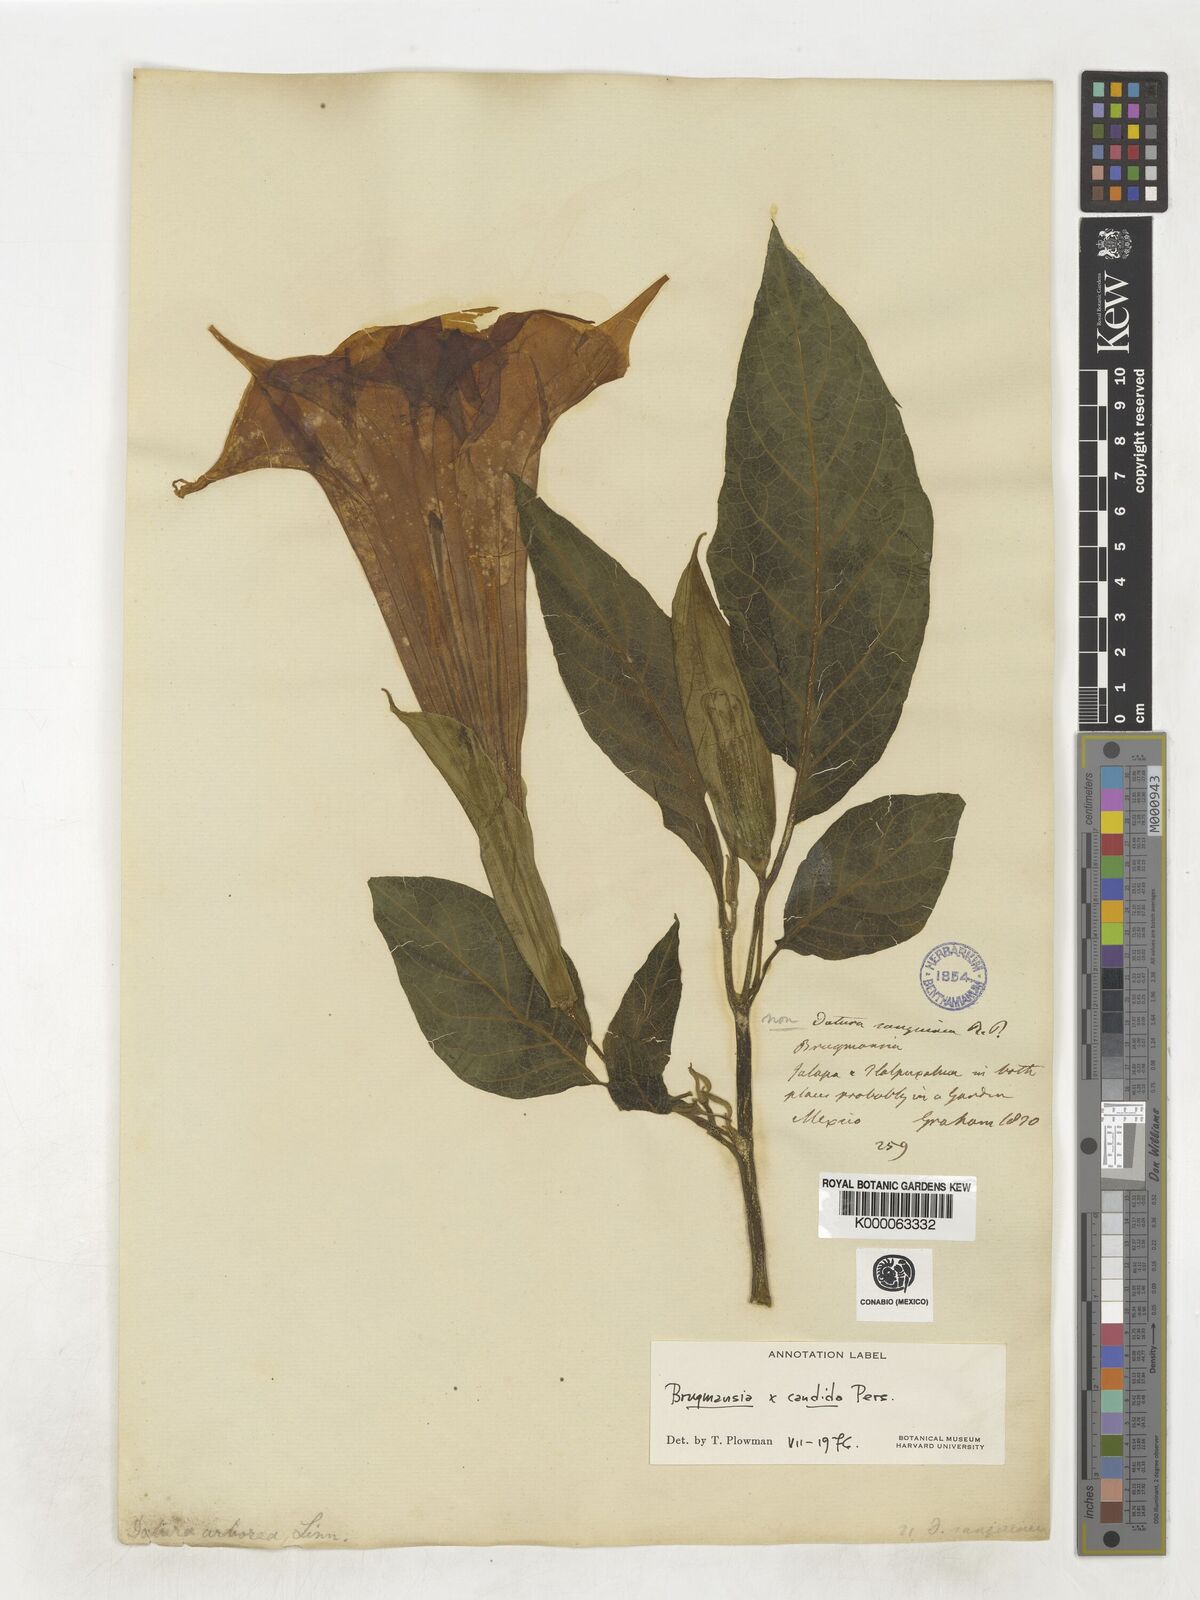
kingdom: Plantae
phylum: Tracheophyta
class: Magnoliopsida
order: Solanales
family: Solanaceae
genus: Brugmansia
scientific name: Brugmansia candida
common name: Angel's-trumpet
